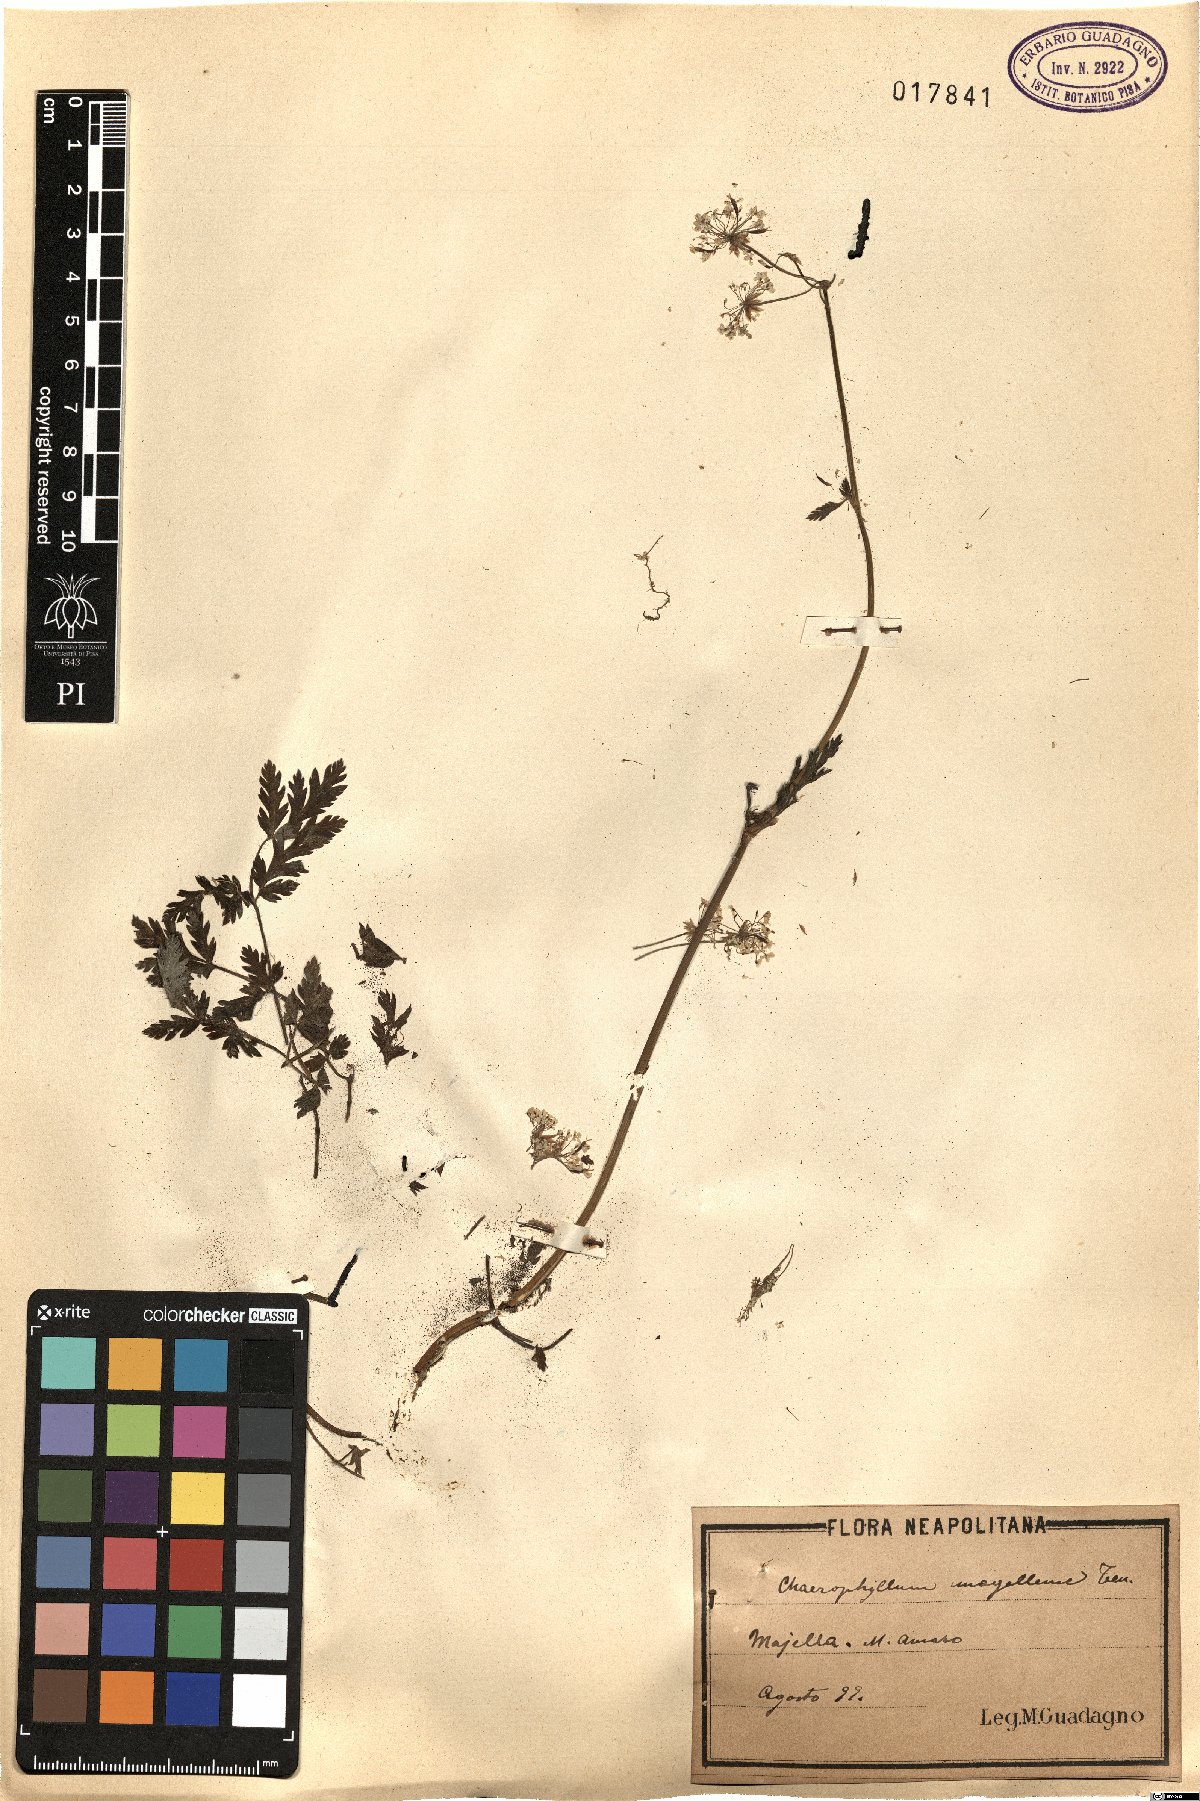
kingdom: Plantae
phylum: Tracheophyta
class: Magnoliopsida
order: Apiales
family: Apiaceae
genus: Chaerophyllum
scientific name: Chaerophyllum hirsutum
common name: Hairy chervil
